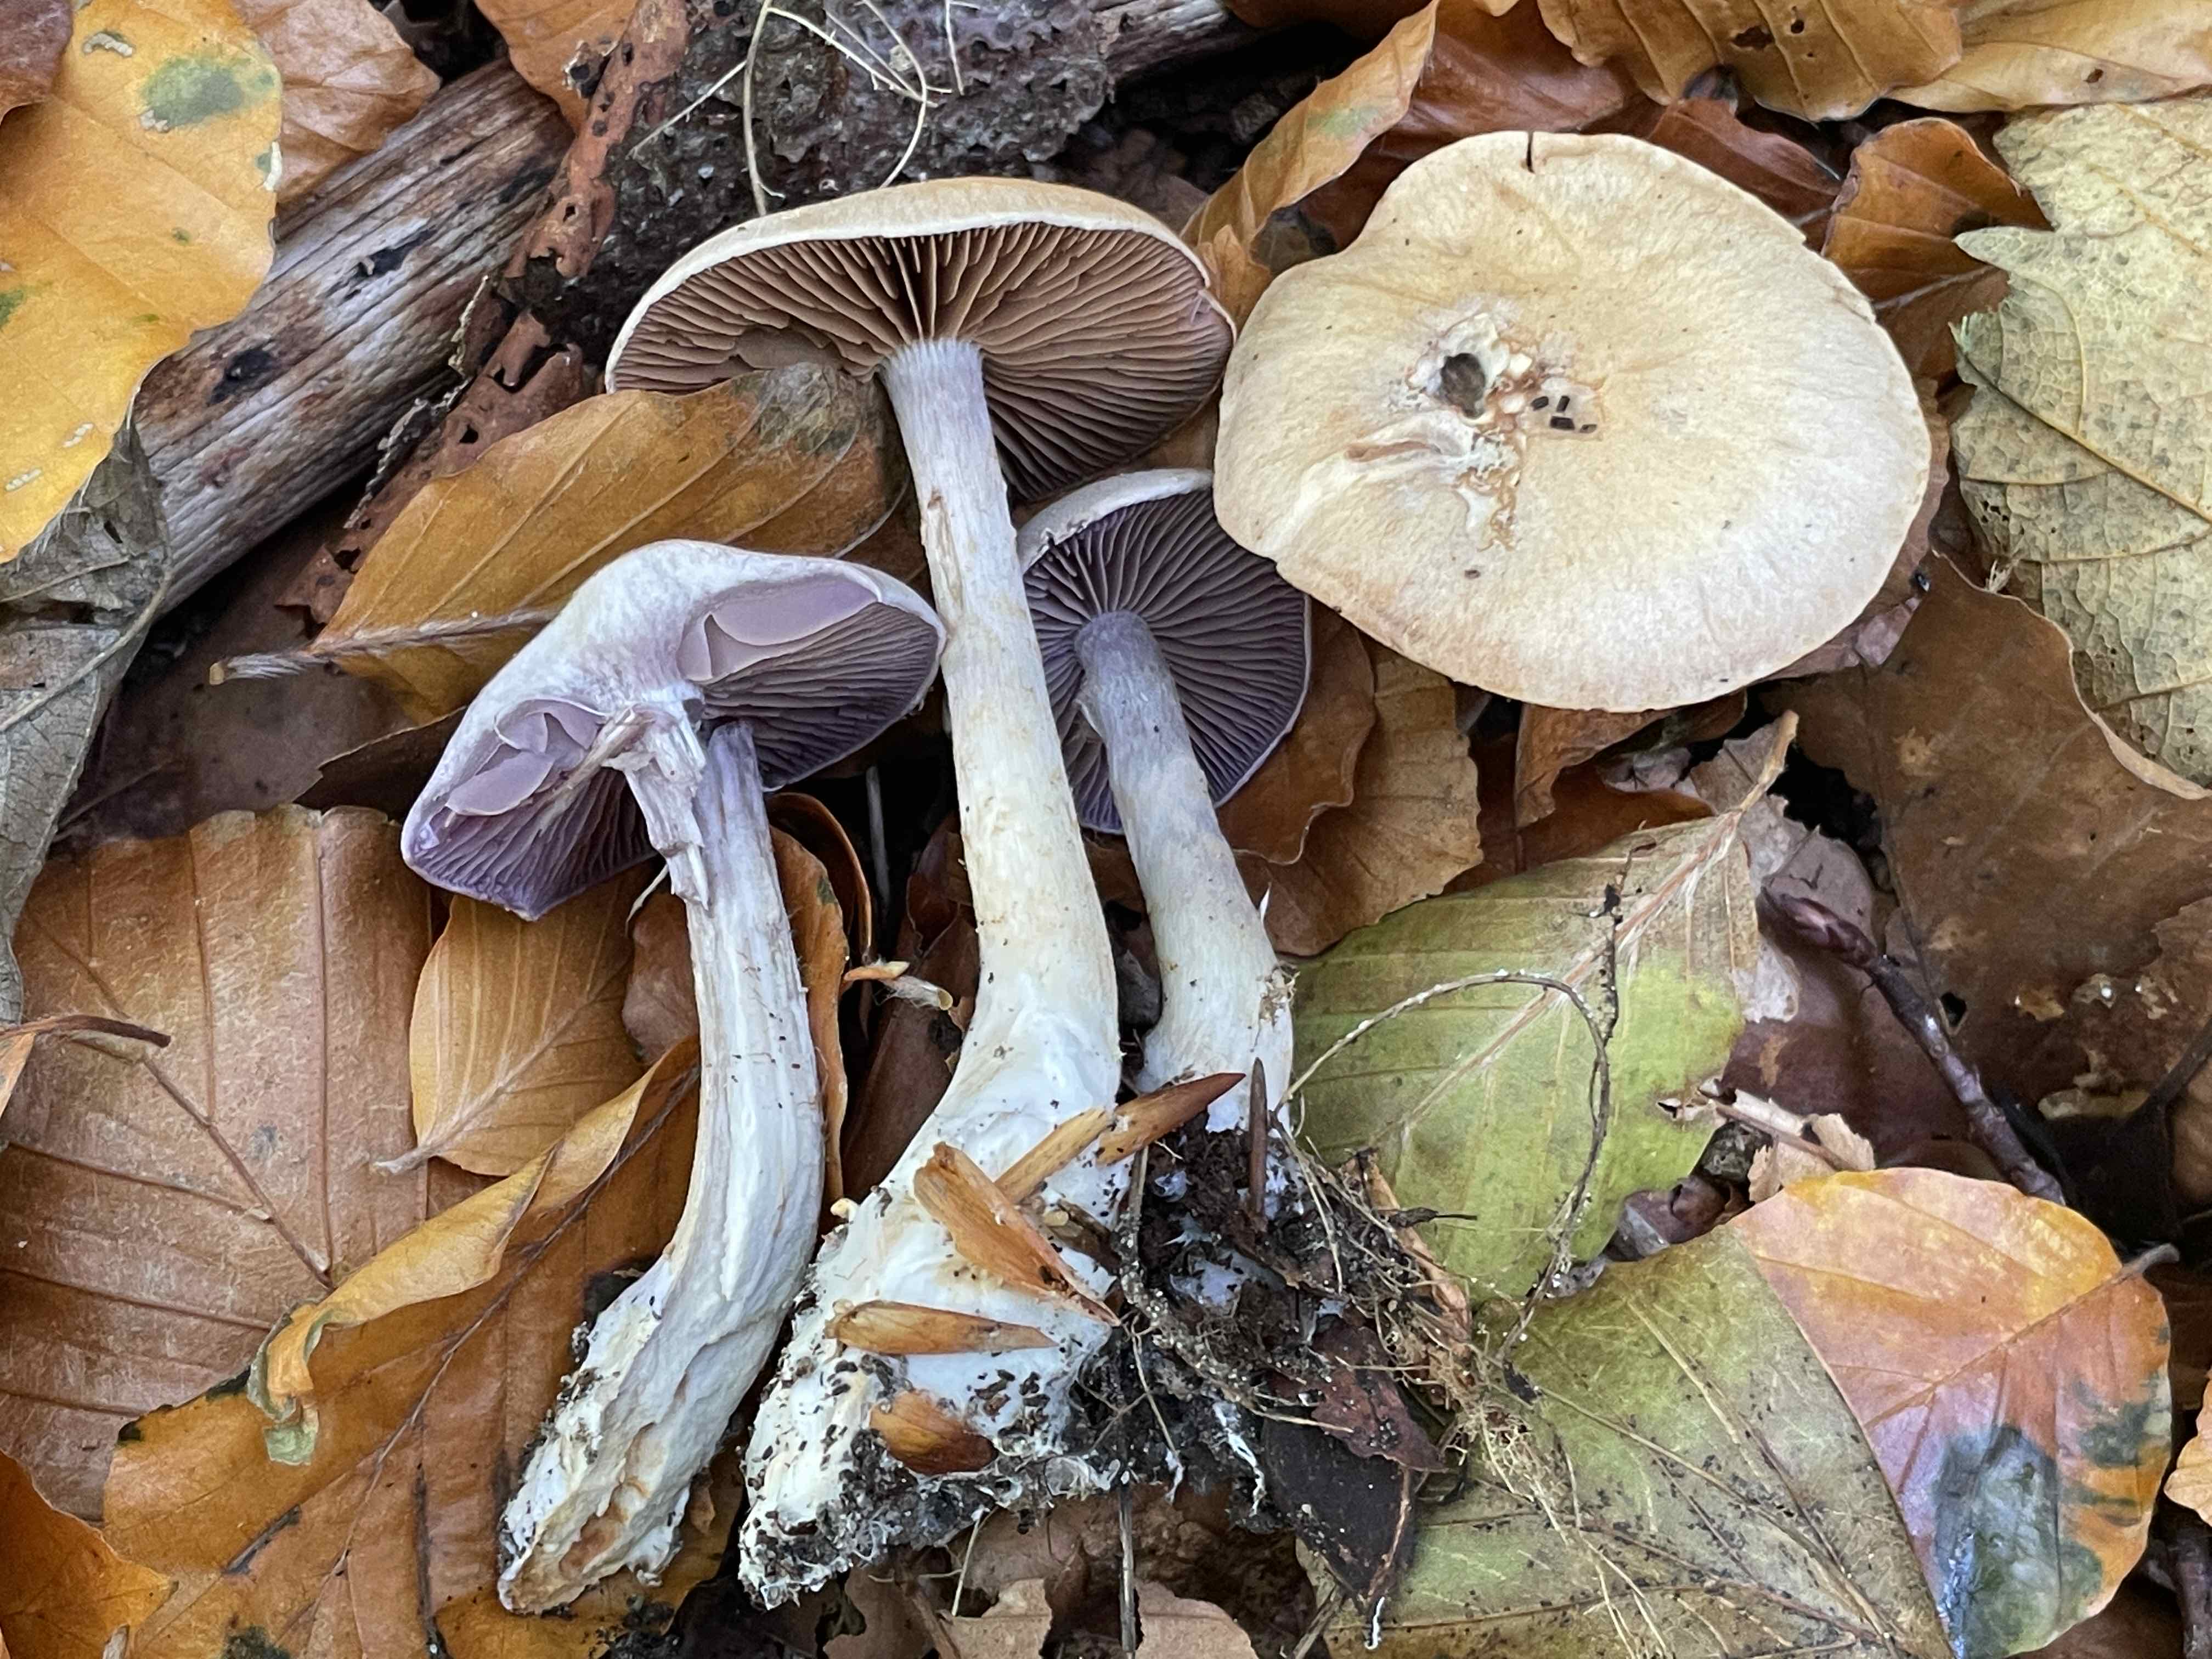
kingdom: Fungi
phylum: Basidiomycota
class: Agaricomycetes
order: Agaricales
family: Cortinariaceae
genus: Cortinarius
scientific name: Cortinarius
